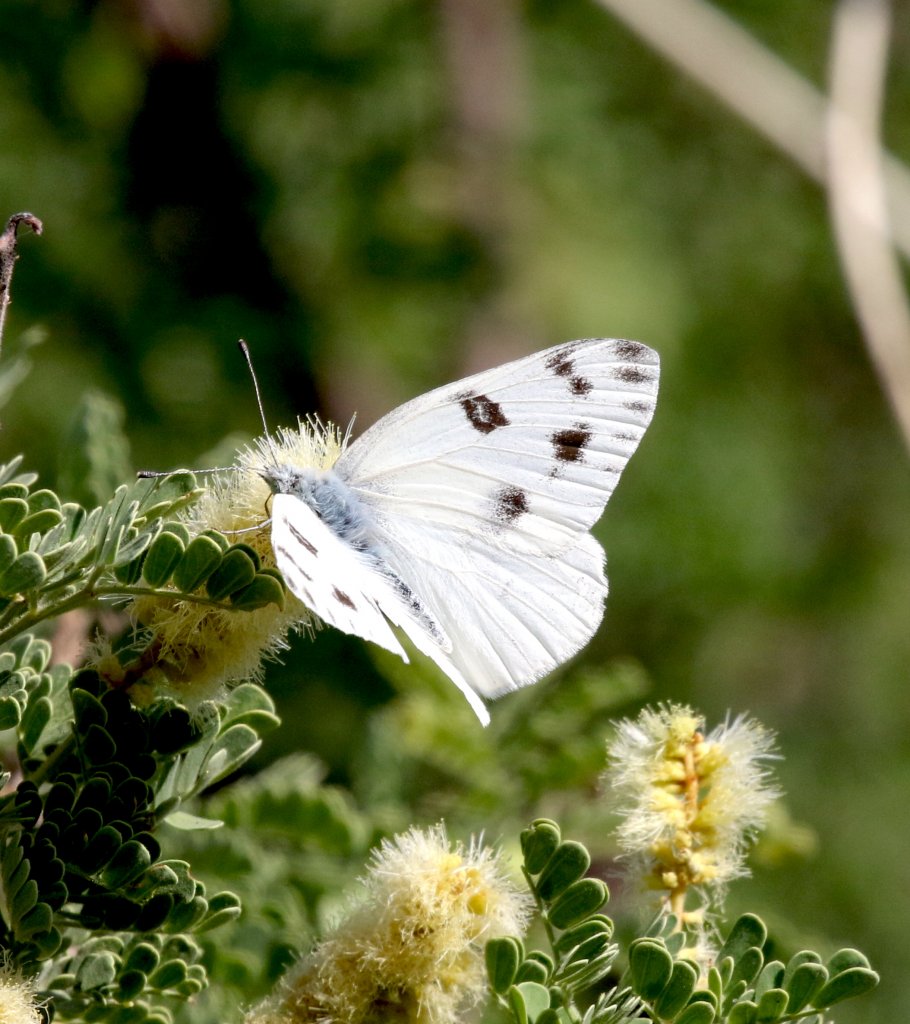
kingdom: Animalia
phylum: Arthropoda
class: Insecta
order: Lepidoptera
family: Pieridae
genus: Pontia
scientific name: Pontia protodice
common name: Checkered White
